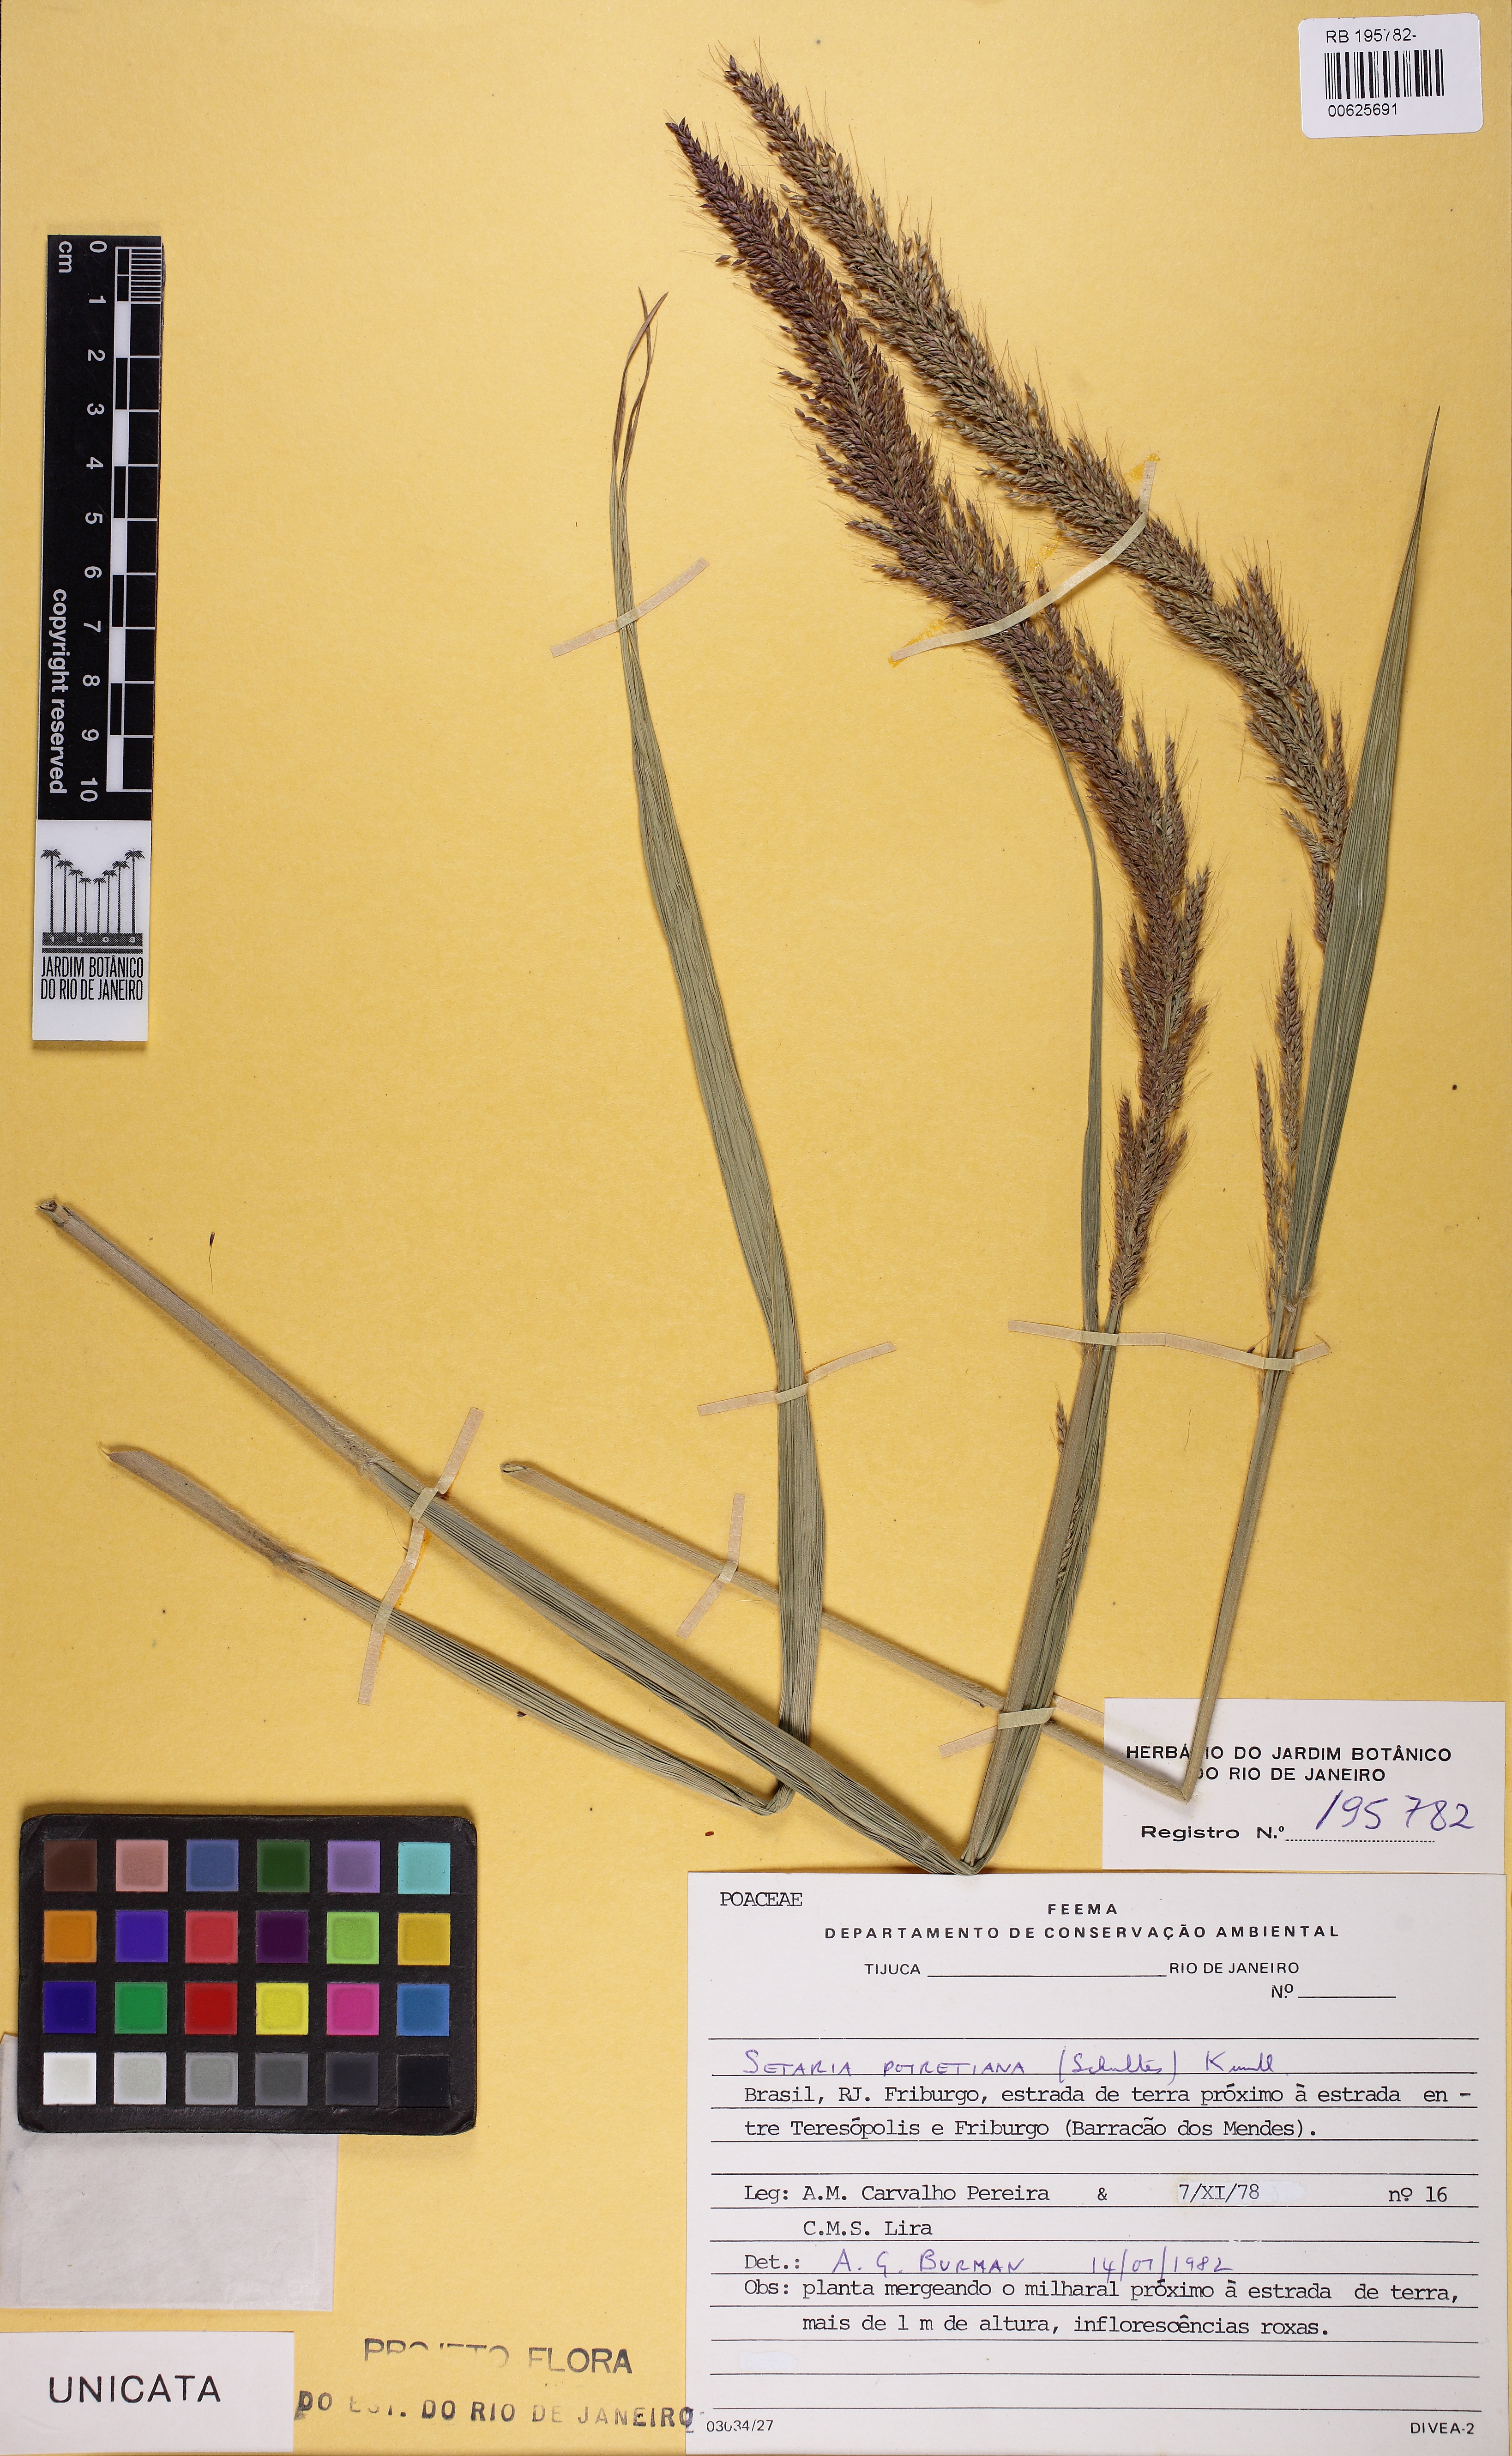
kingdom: Plantae
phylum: Tracheophyta
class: Liliopsida
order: Poales
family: Poaceae
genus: Setaria
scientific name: Setaria poiretiana
